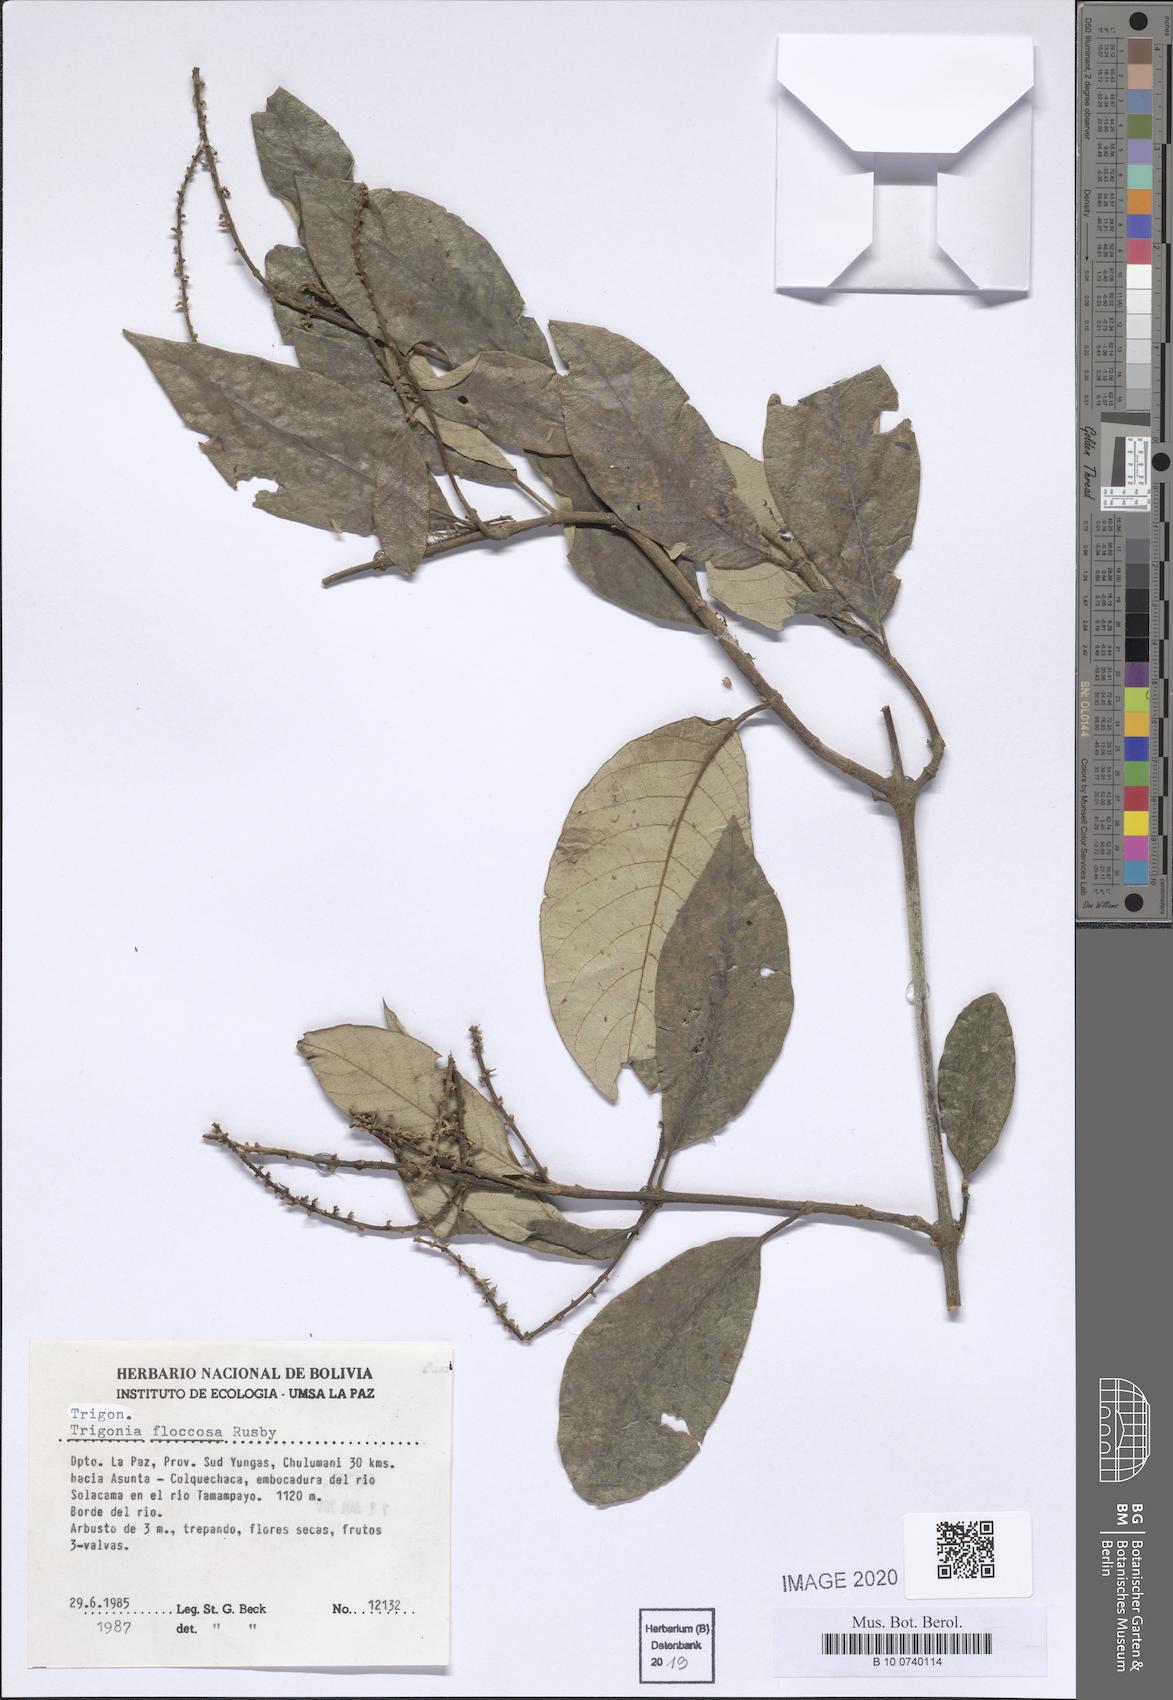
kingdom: Plantae
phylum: Tracheophyta
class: Magnoliopsida
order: Malpighiales
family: Trigoniaceae
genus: Trigonia
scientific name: Trigonia floccosa
